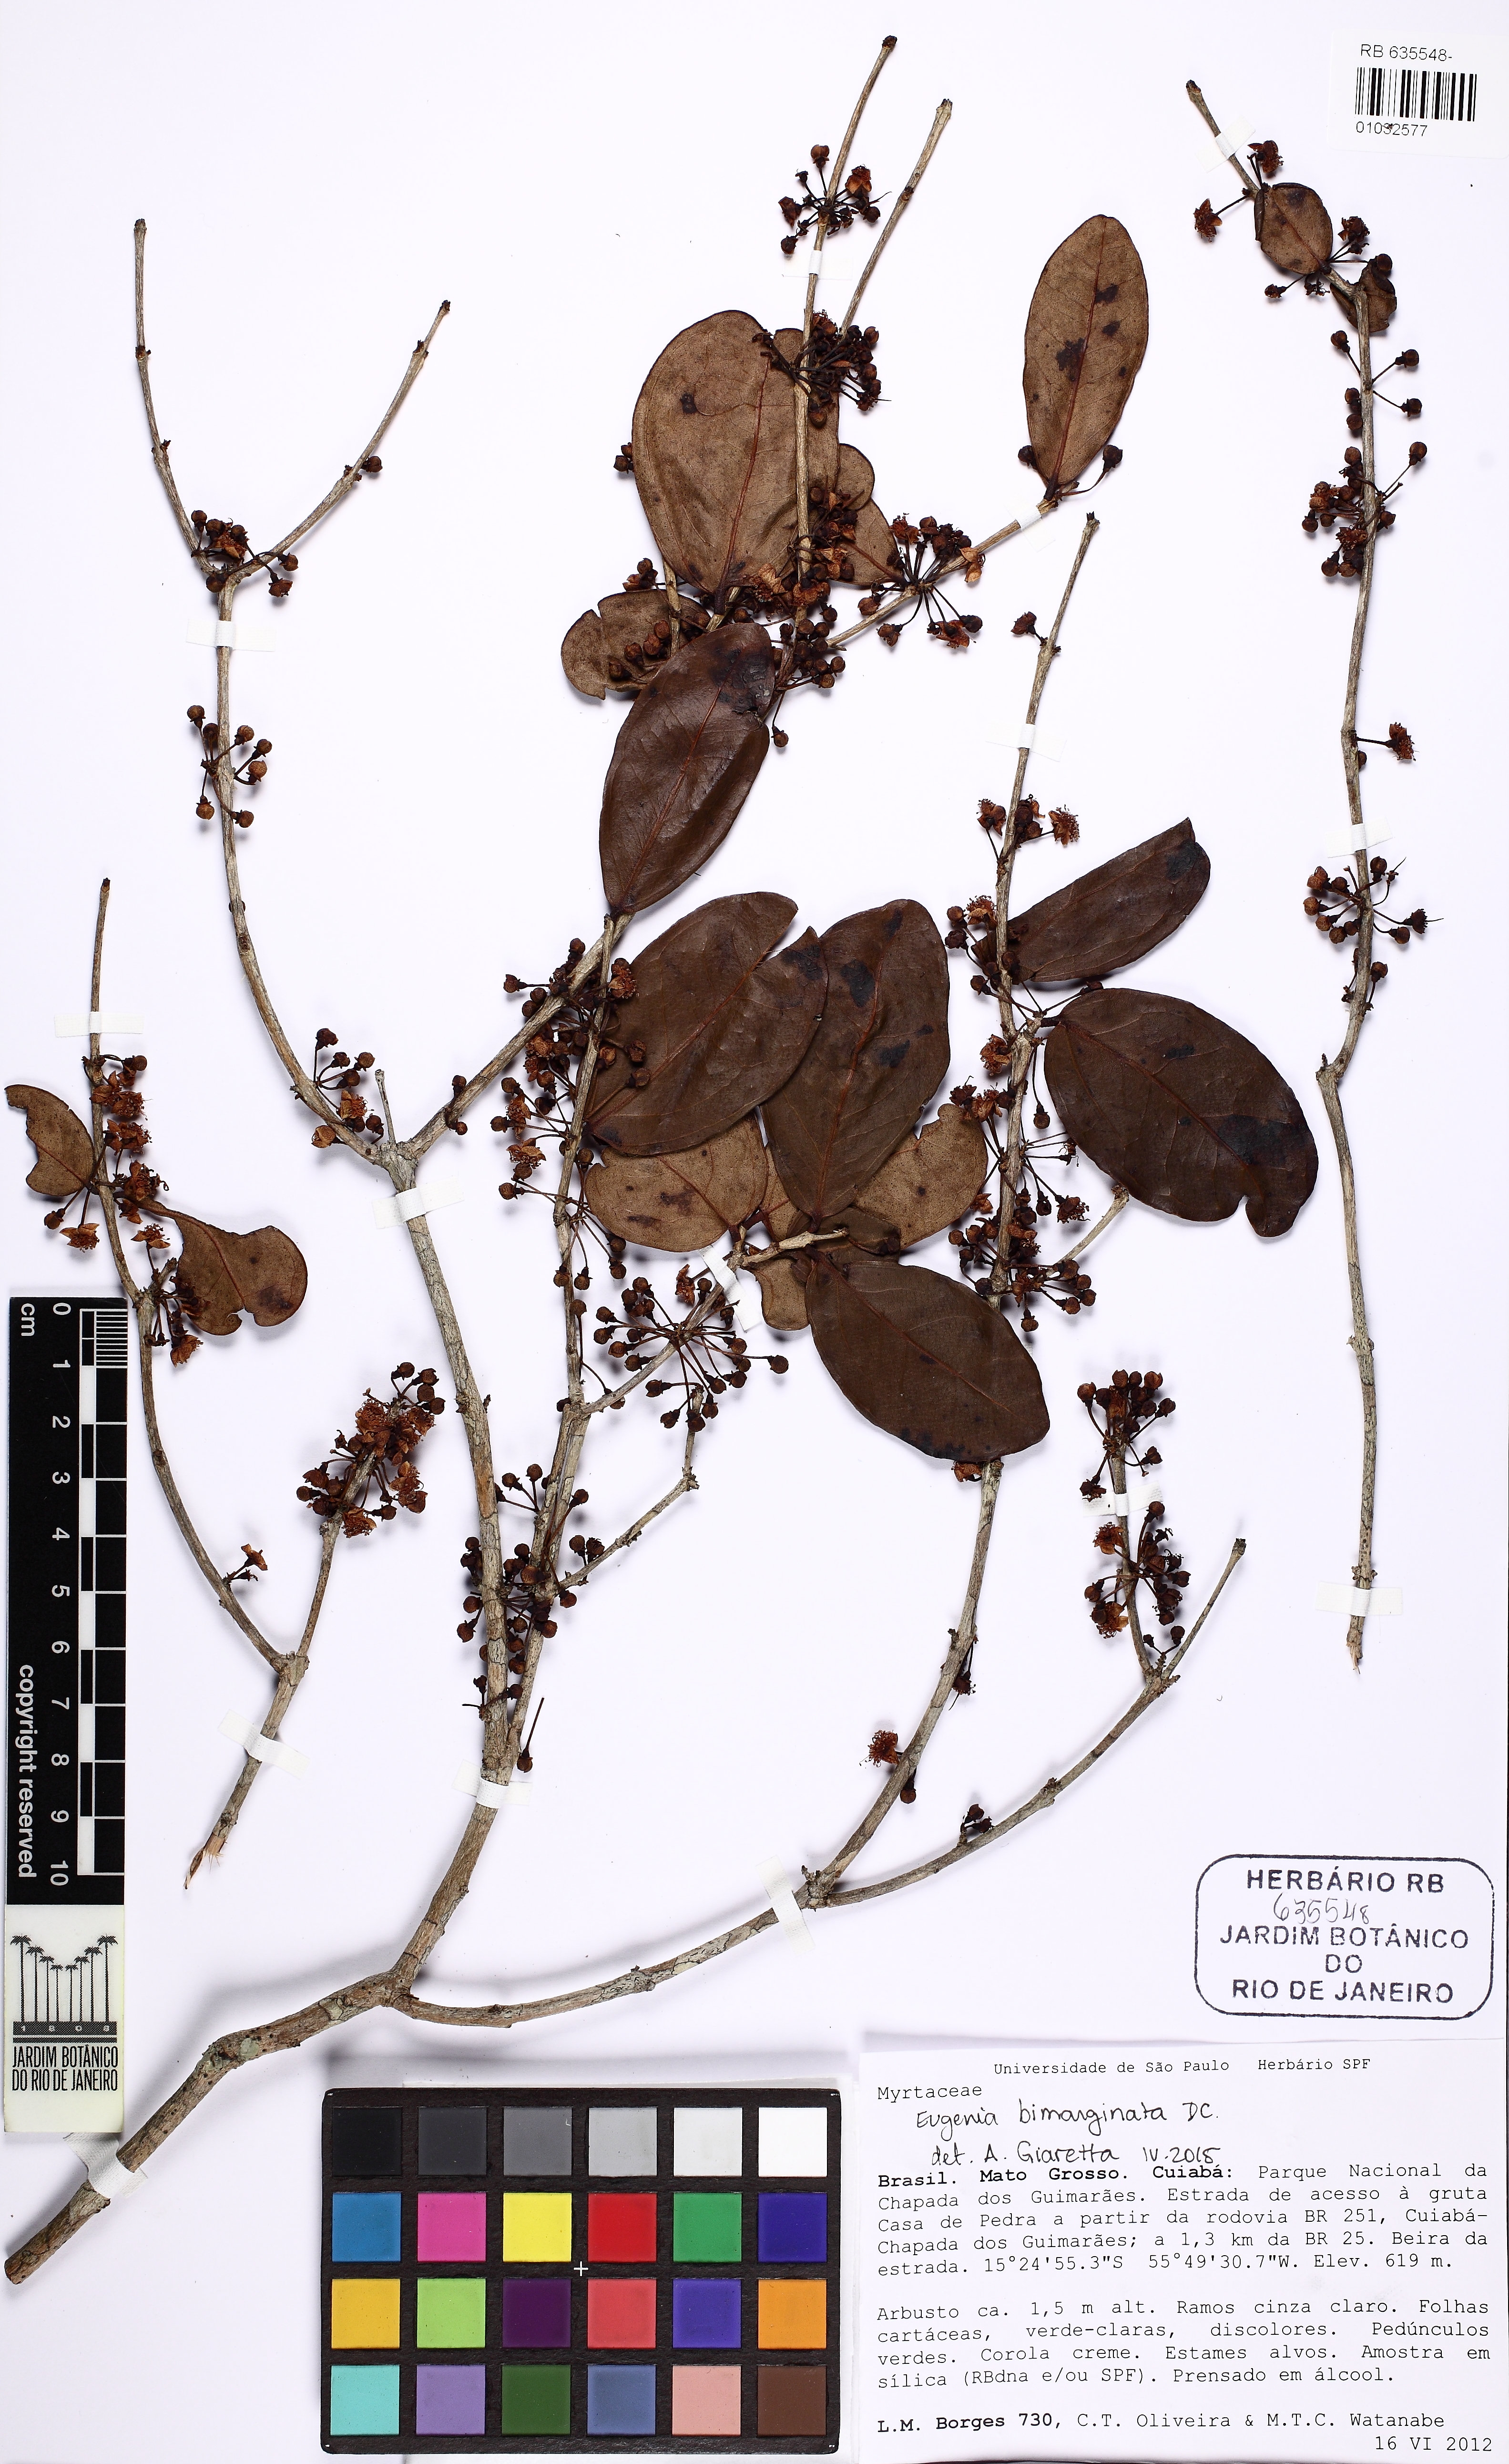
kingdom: Plantae
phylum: Tracheophyta
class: Magnoliopsida
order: Myrtales
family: Myrtaceae
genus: Eugenia
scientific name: Eugenia bimarginata
